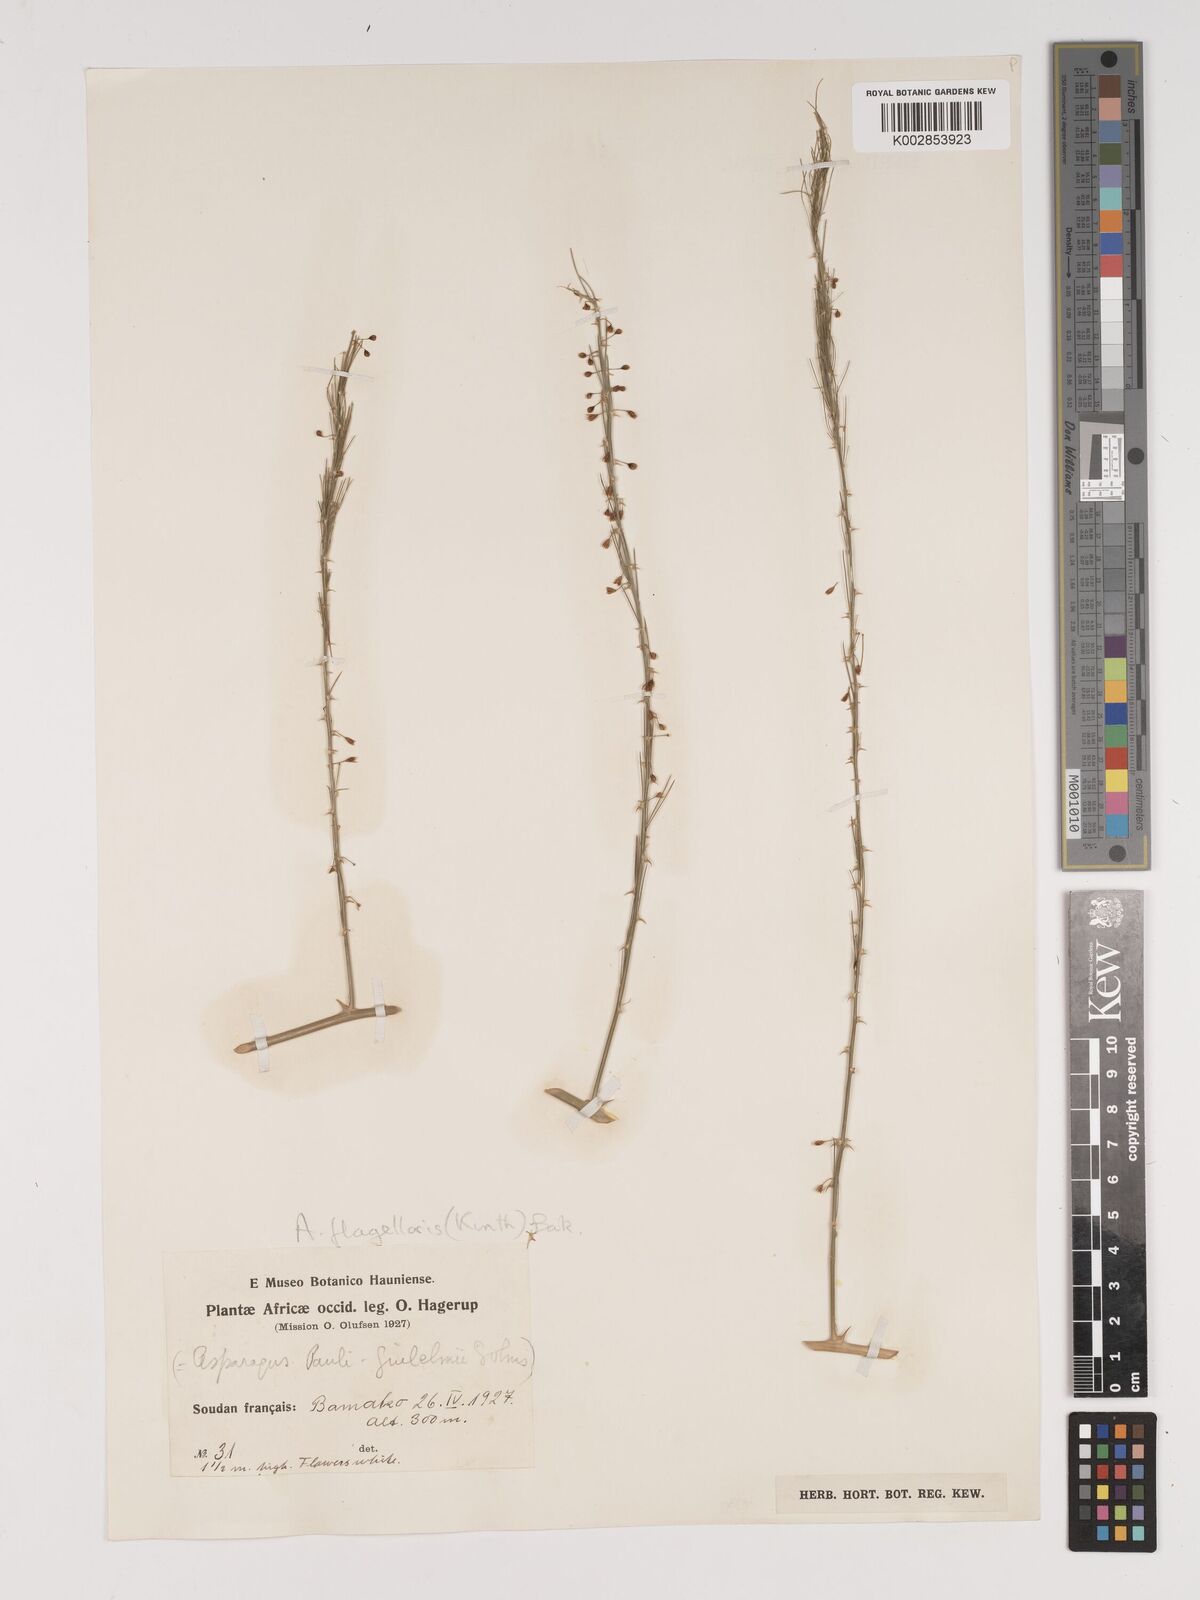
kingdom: Plantae
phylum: Tracheophyta
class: Liliopsida
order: Asparagales
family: Asparagaceae
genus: Asparagus
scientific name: Asparagus flagellaris
